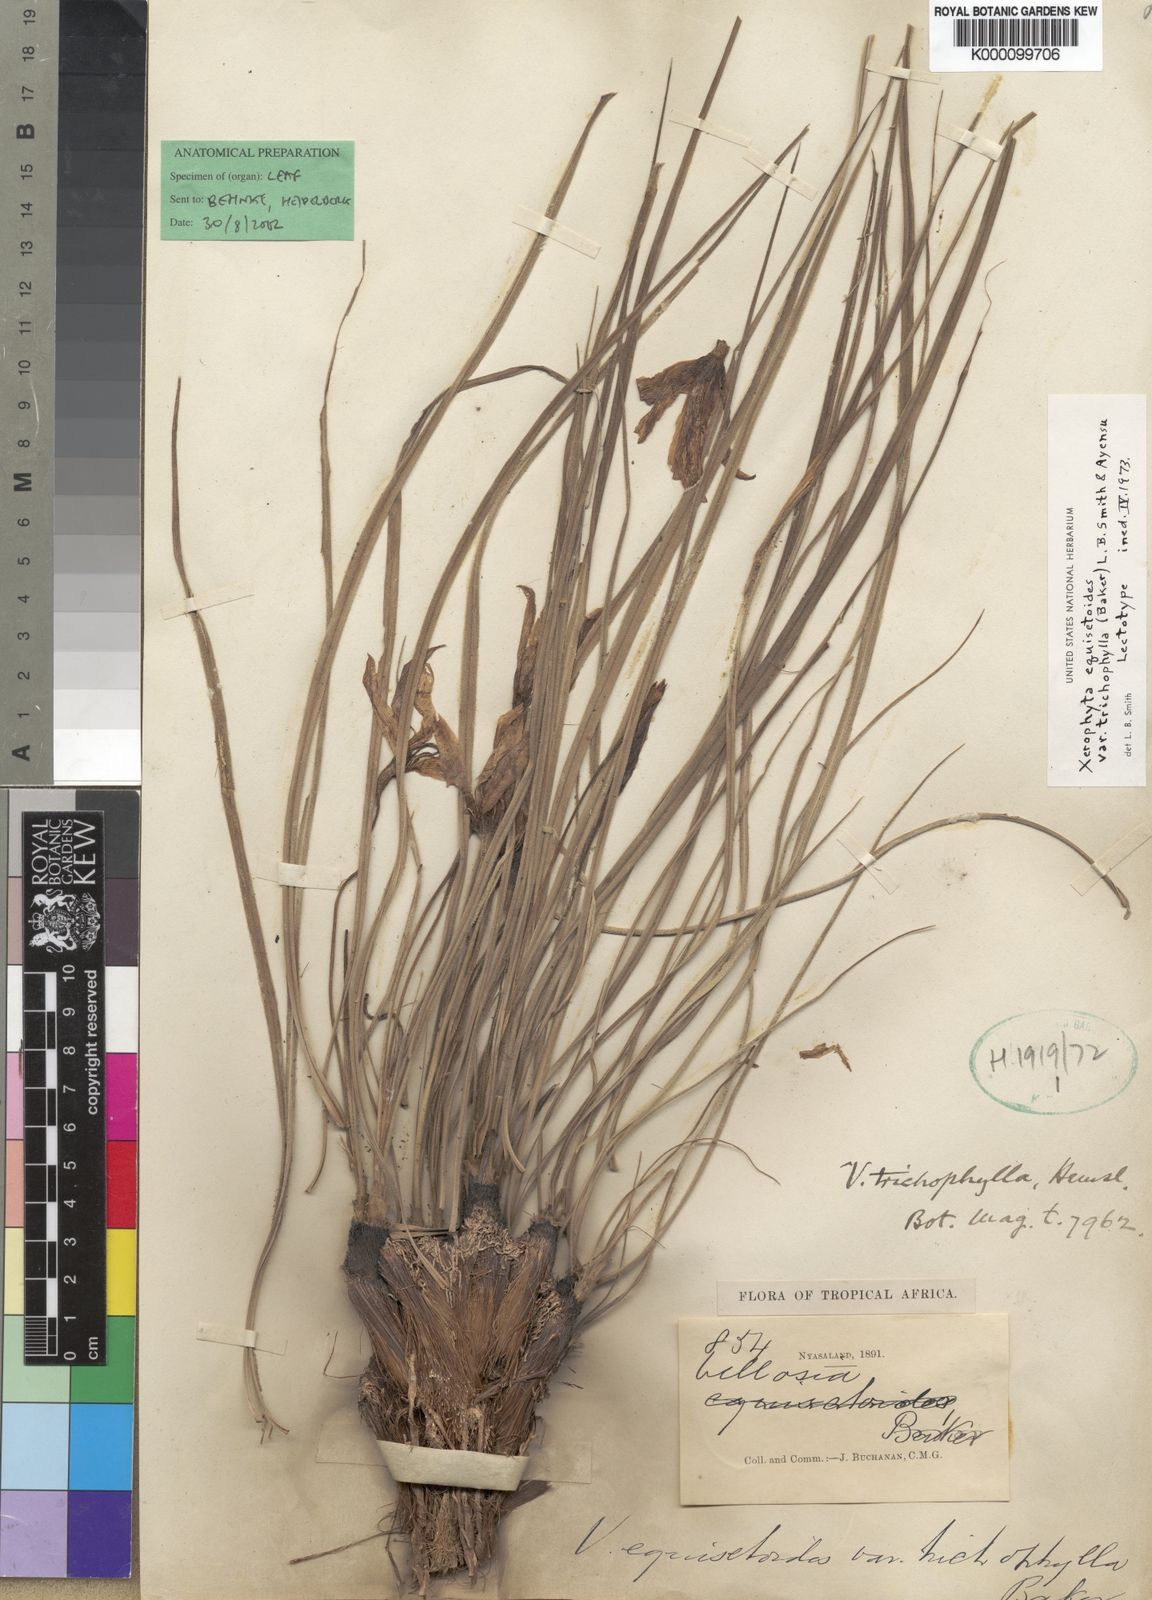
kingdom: Plantae
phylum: Tracheophyta
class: Liliopsida
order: Pandanales
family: Velloziaceae
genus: Xerophyta
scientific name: Xerophyta trichophylla
